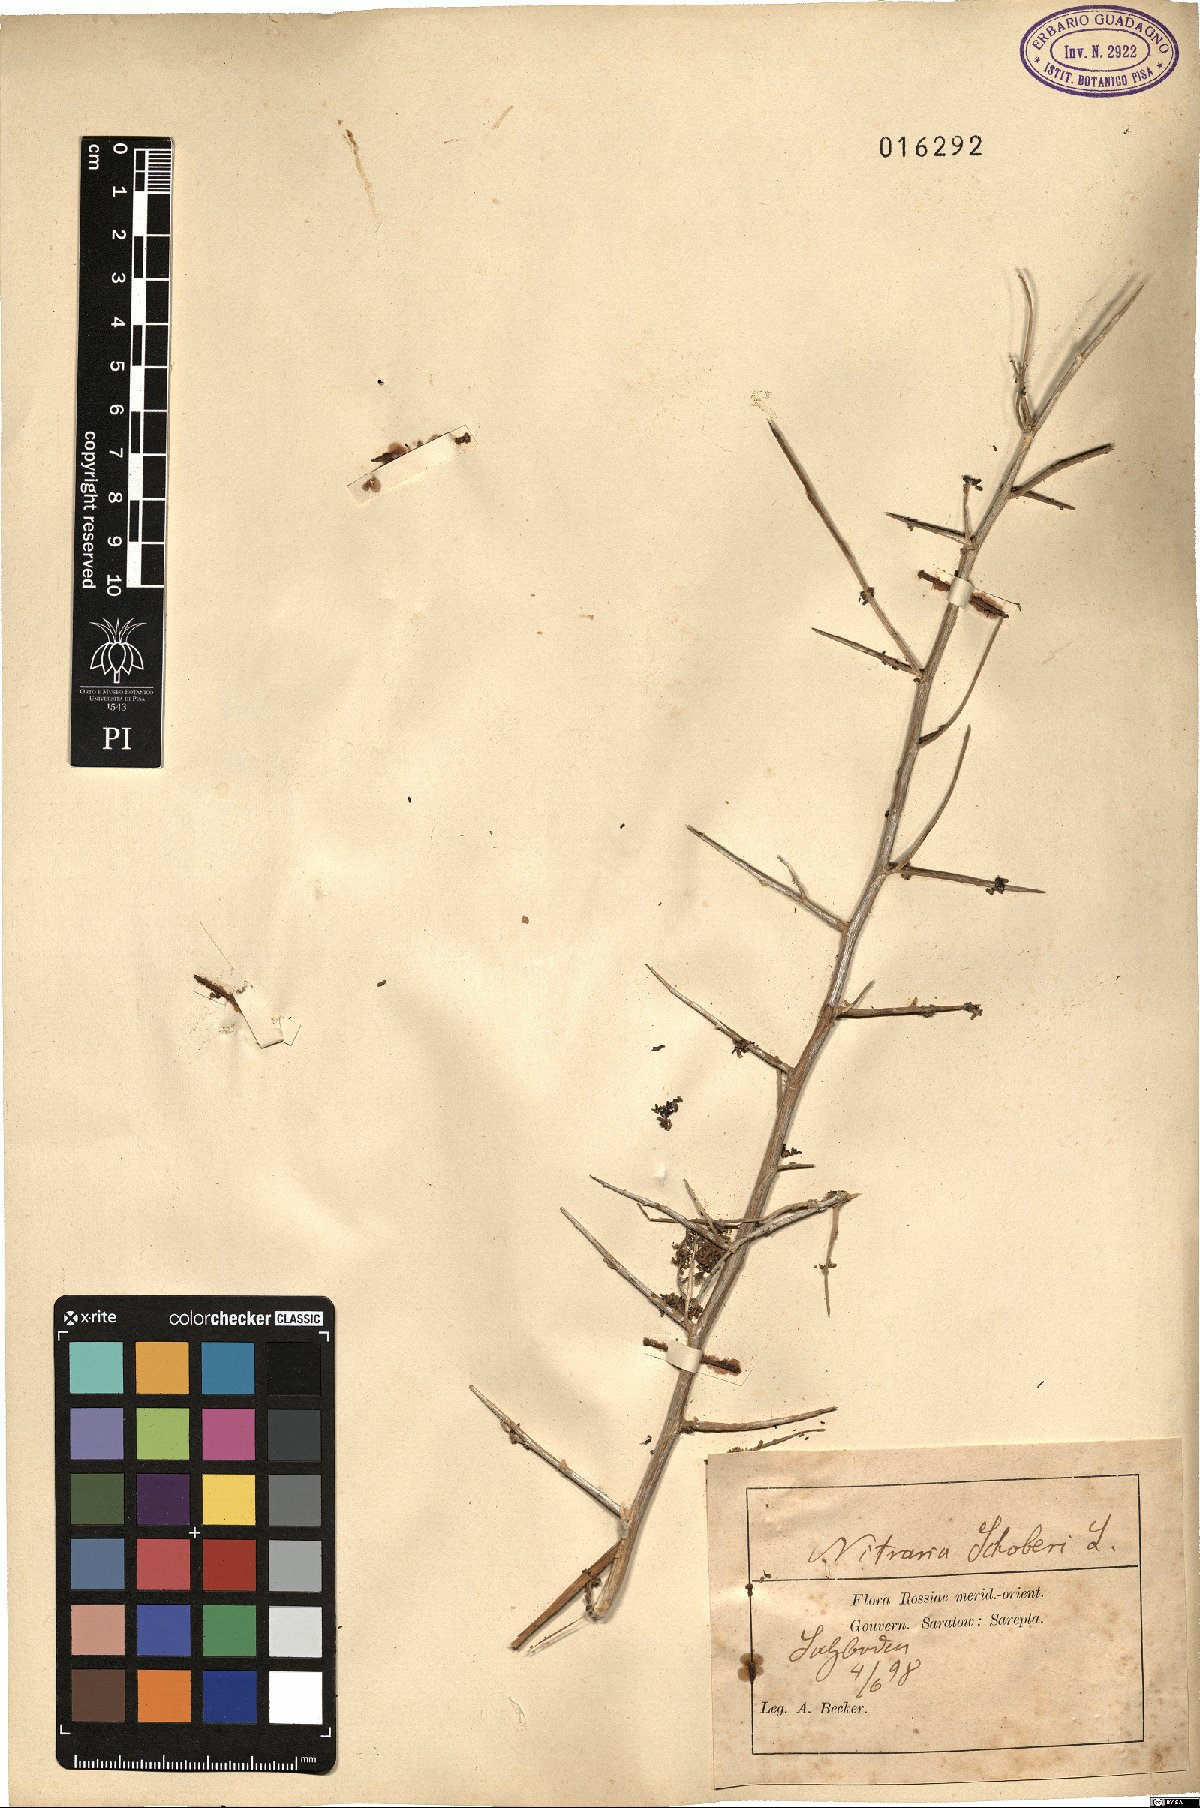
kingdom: Plantae
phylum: Tracheophyta
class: Magnoliopsida
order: Sapindales
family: Nitrariaceae
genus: Nitraria
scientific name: Nitraria schoberi
